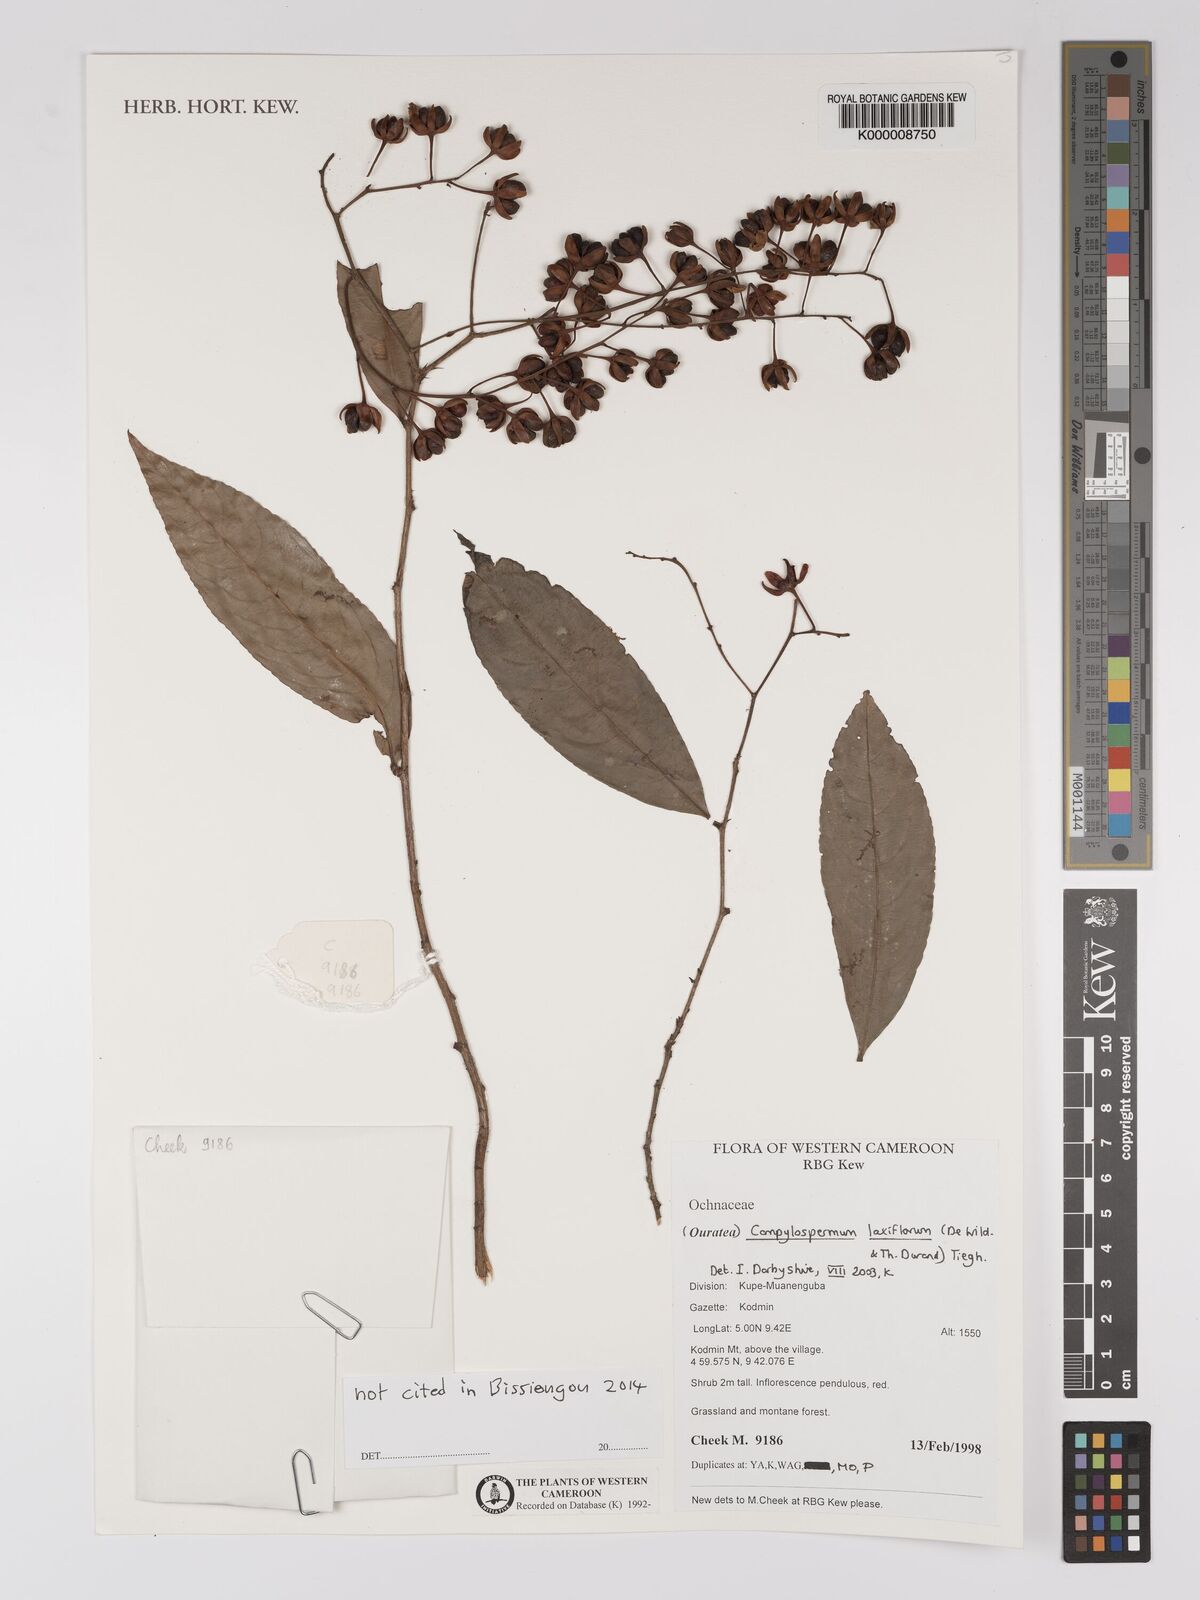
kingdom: Plantae
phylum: Tracheophyta
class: Magnoliopsida
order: Malpighiales
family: Ochnaceae
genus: Campylospermum
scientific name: Campylospermum laxiflorum
